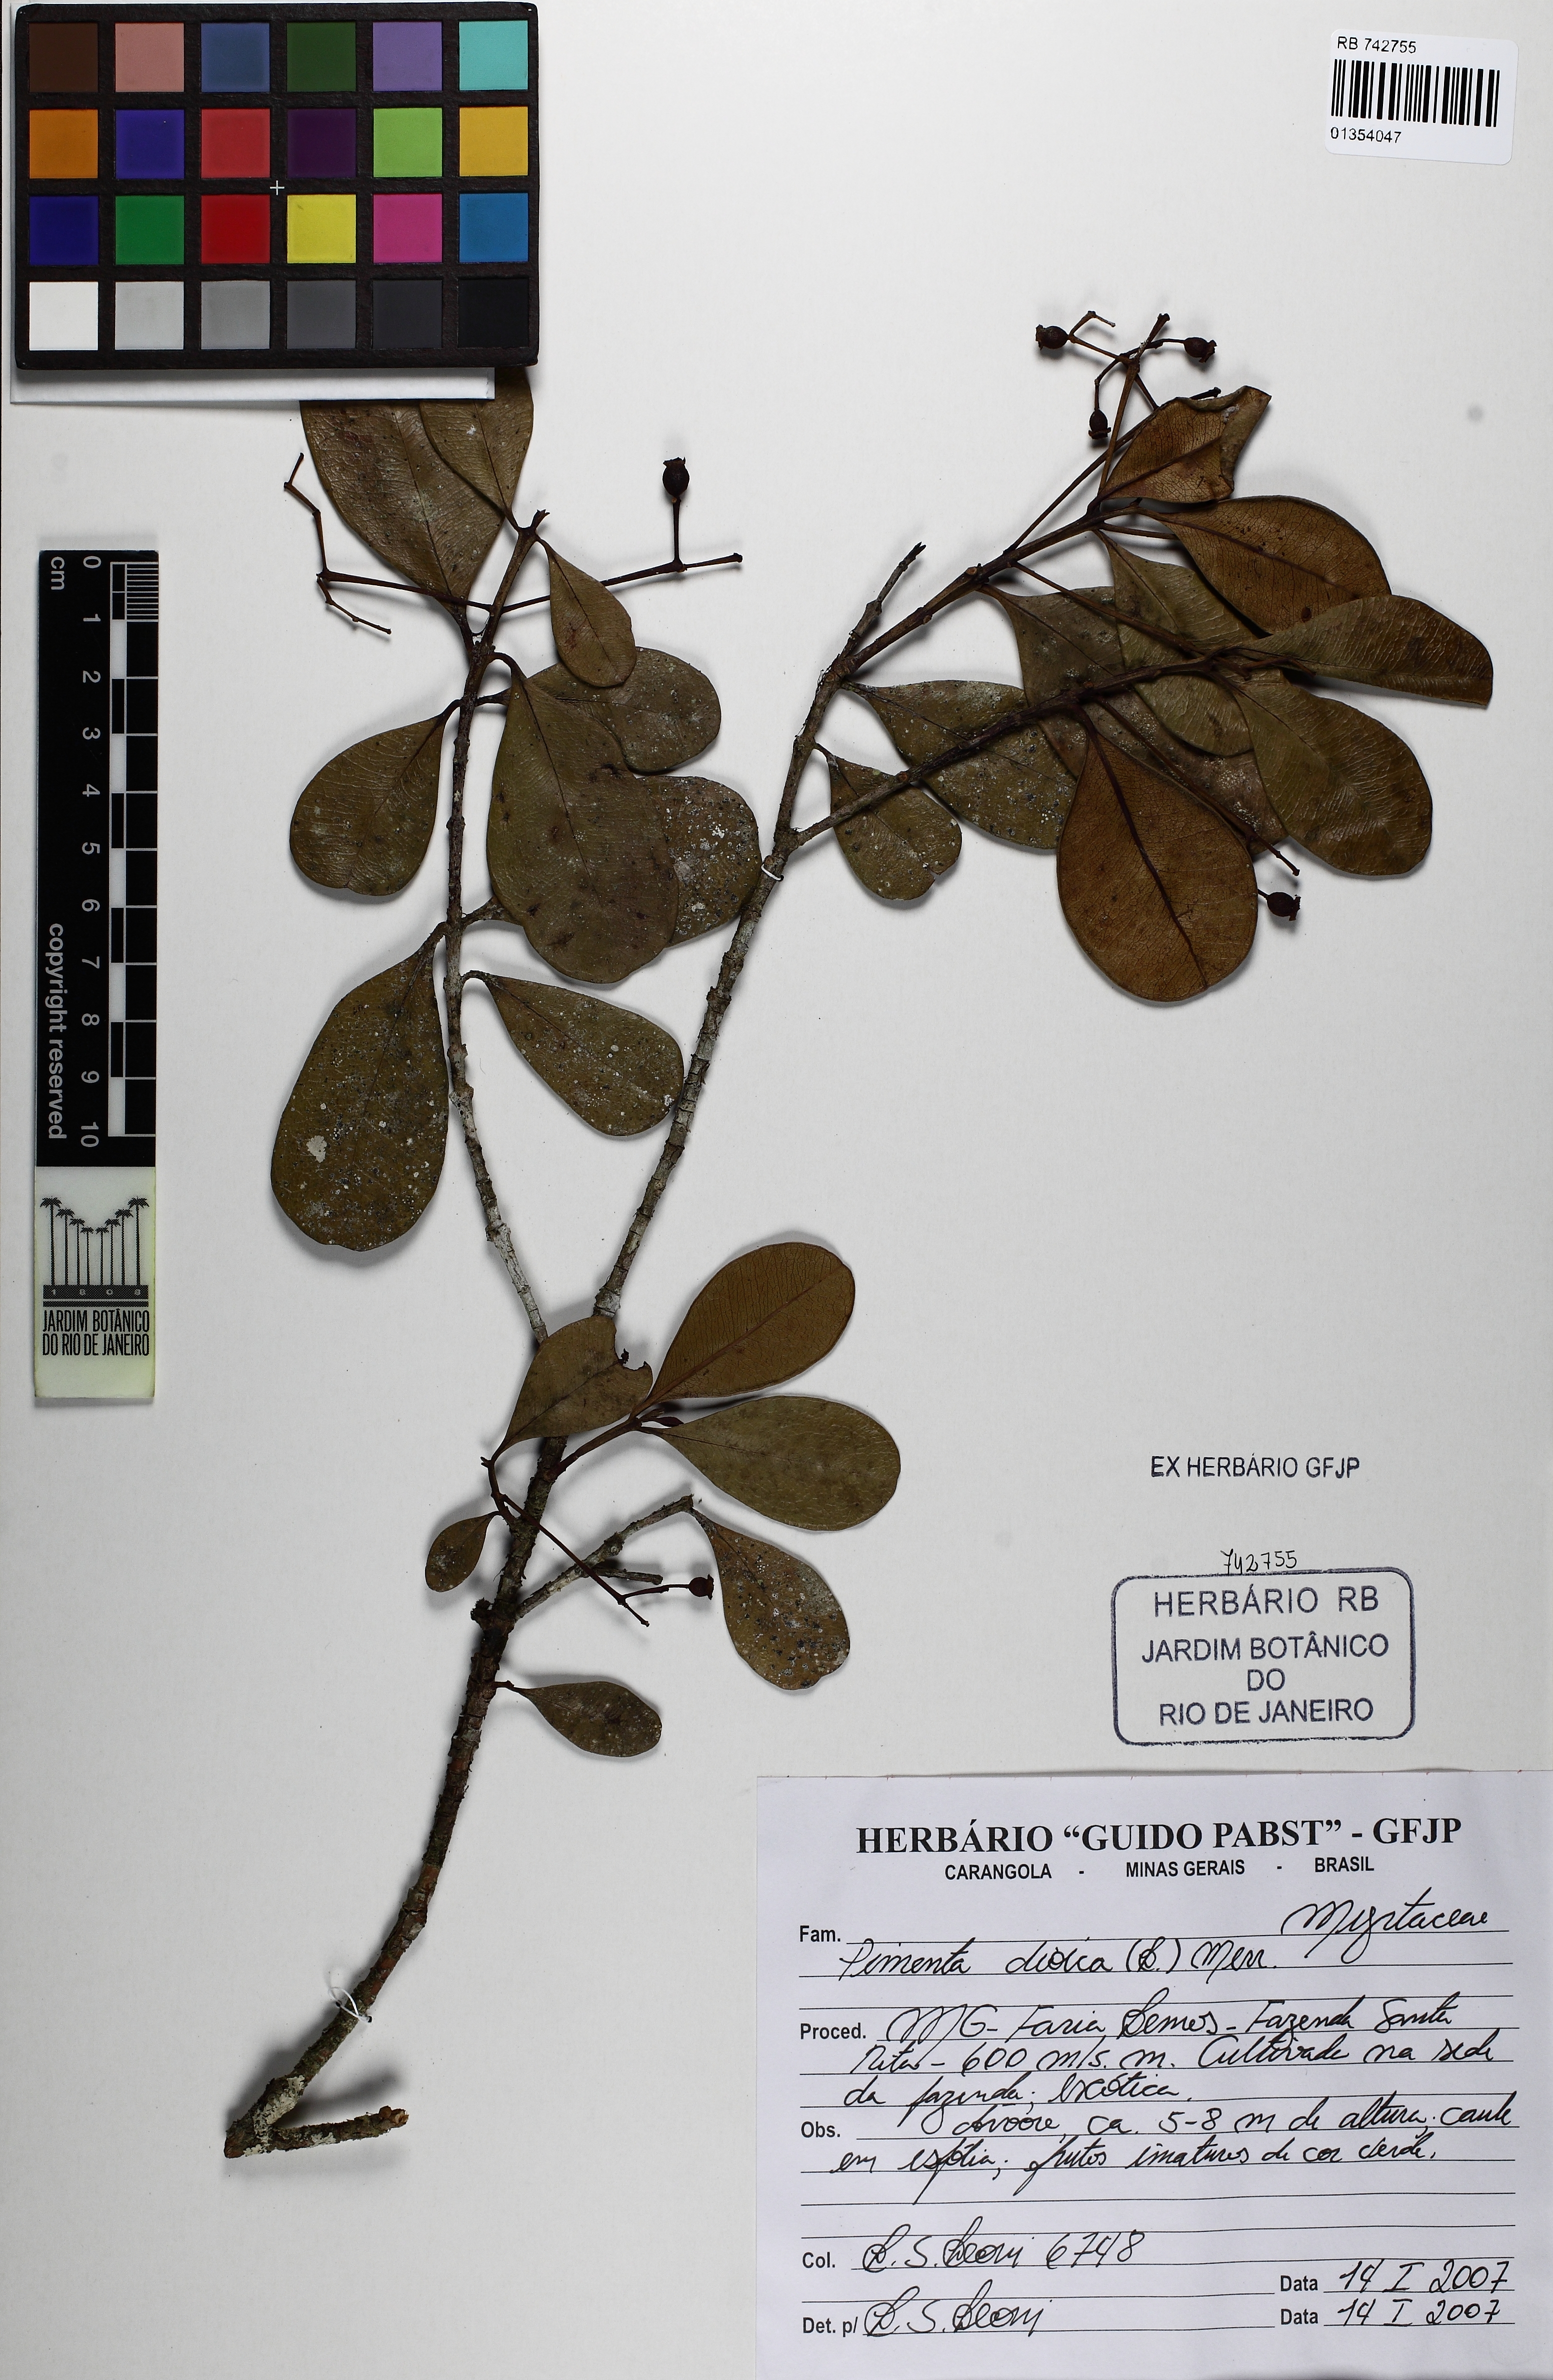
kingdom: Plantae
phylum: Tracheophyta
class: Magnoliopsida
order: Myrtales
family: Myrtaceae
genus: Pimenta
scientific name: Pimenta dioica
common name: Allspice
